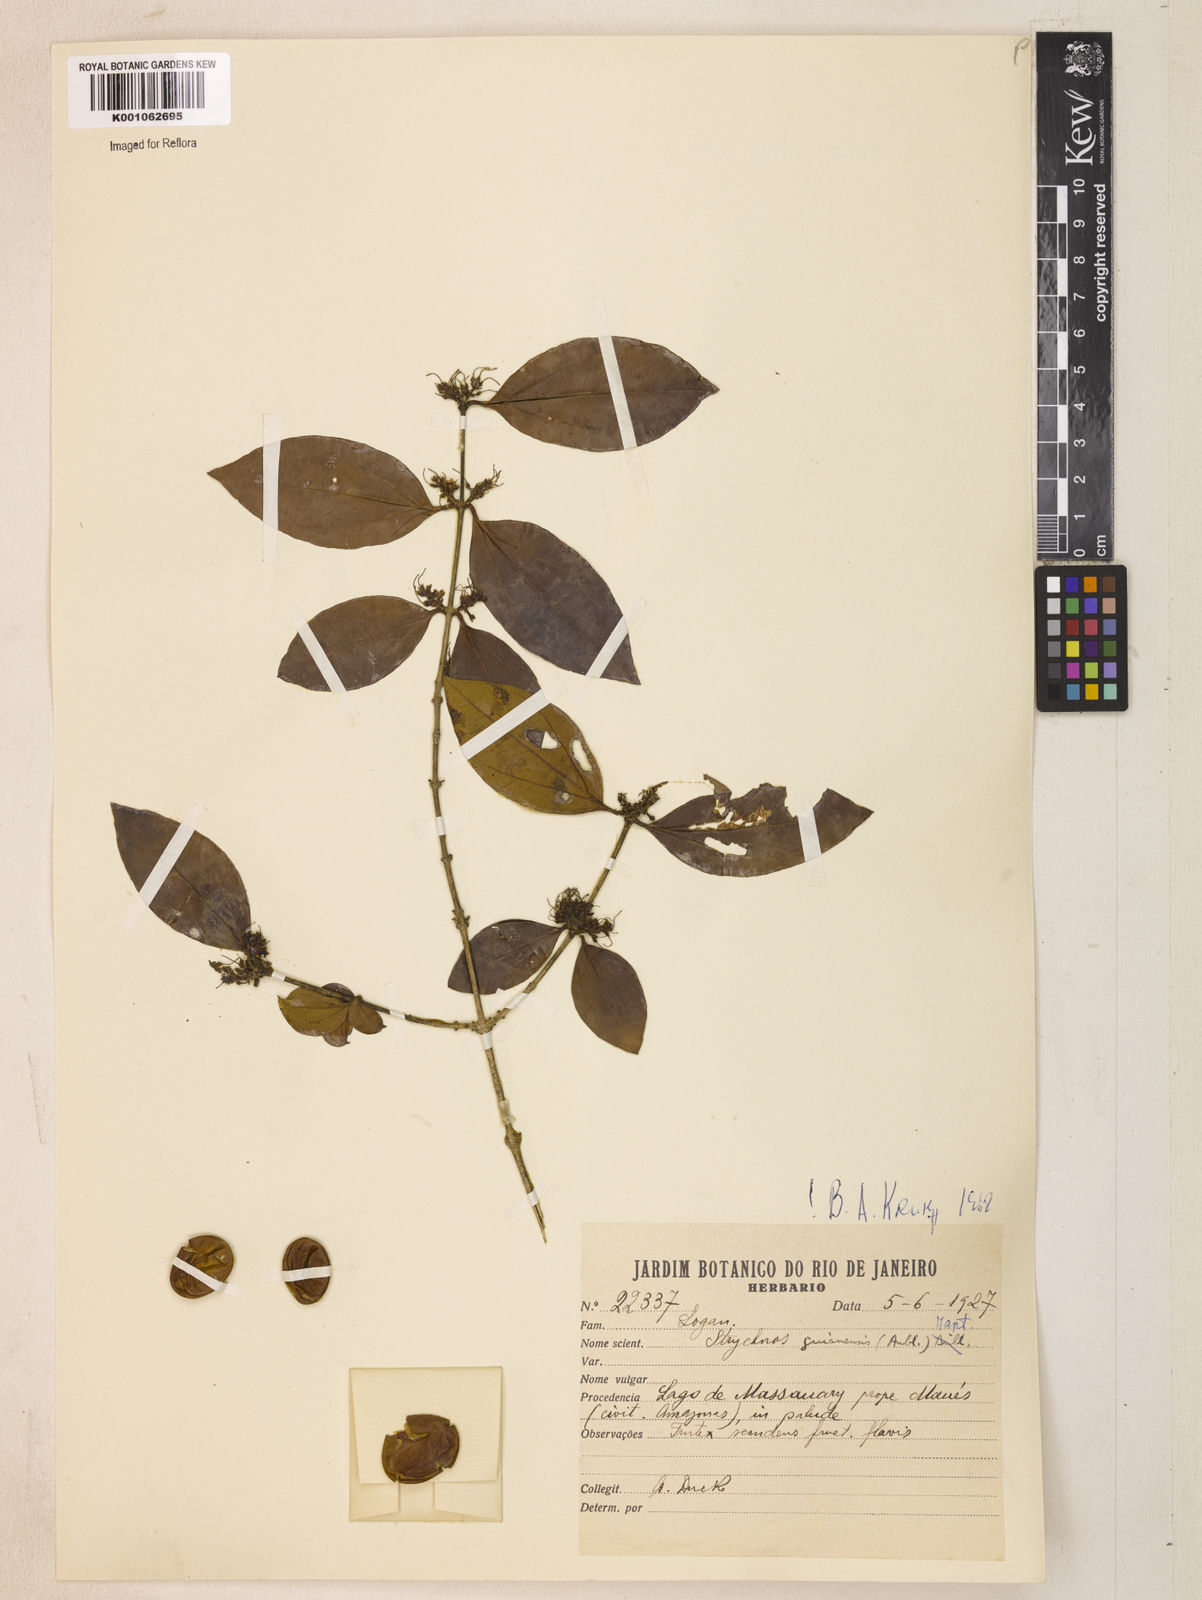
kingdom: Plantae
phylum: Tracheophyta
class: Magnoliopsida
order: Gentianales
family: Loganiaceae
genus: Strychnos
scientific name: Strychnos guianensis
